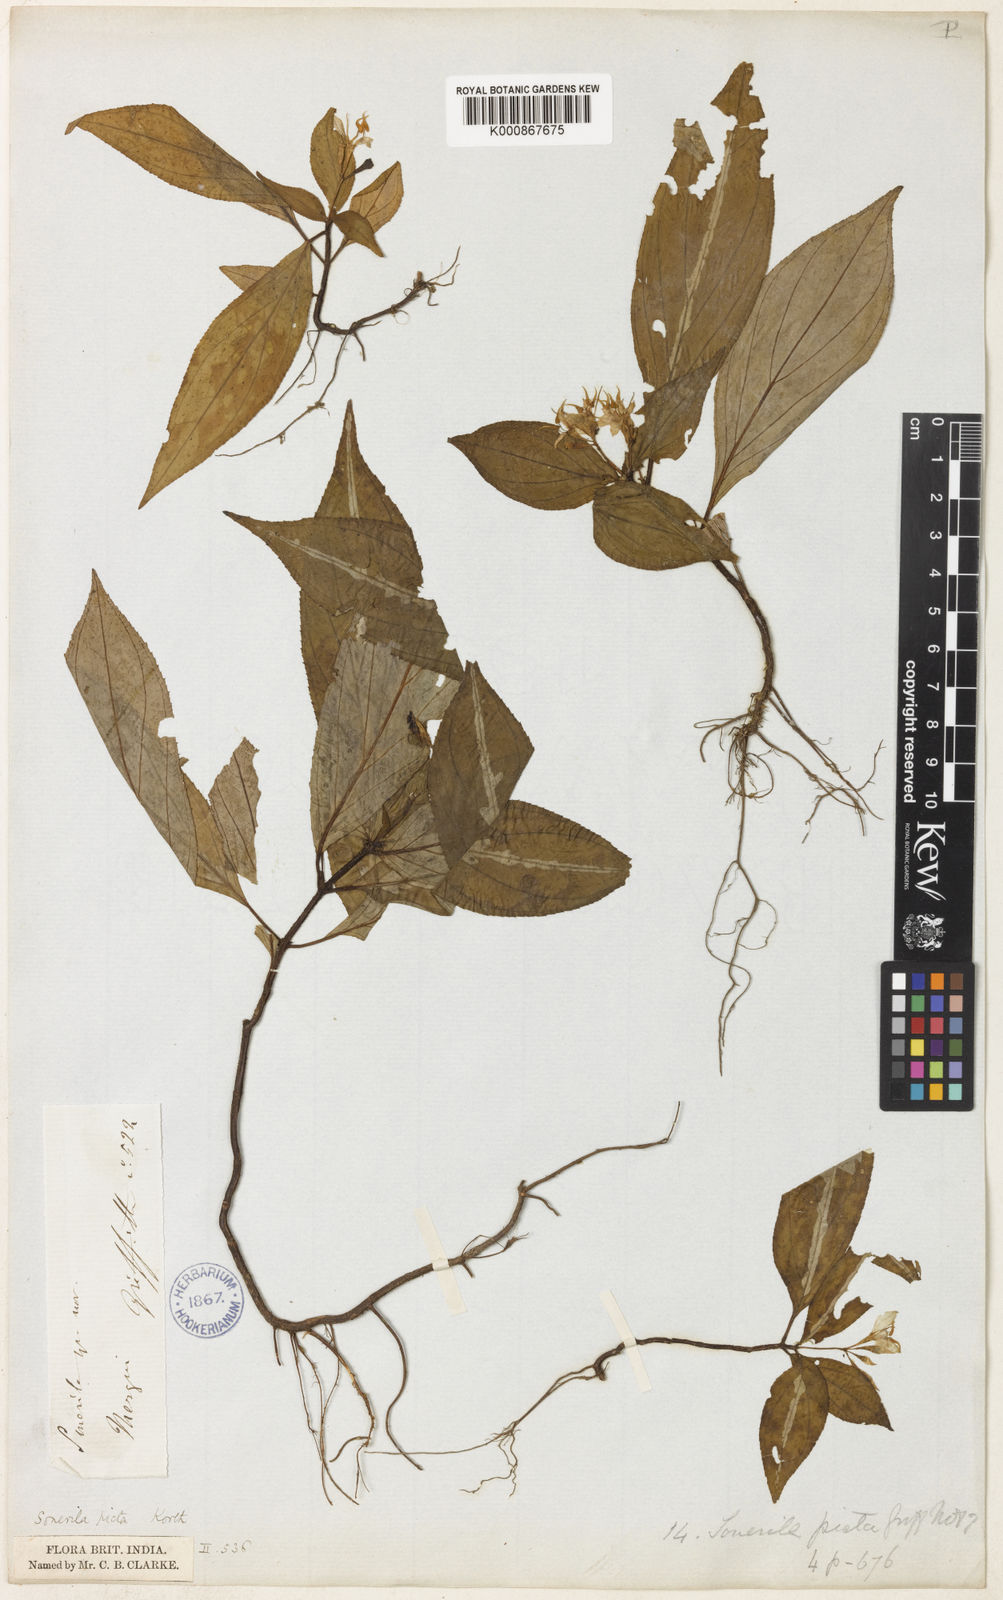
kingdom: Plantae
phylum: Tracheophyta
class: Magnoliopsida
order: Myrtales
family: Melastomataceae
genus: Sonerila
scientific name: Sonerila maculata
